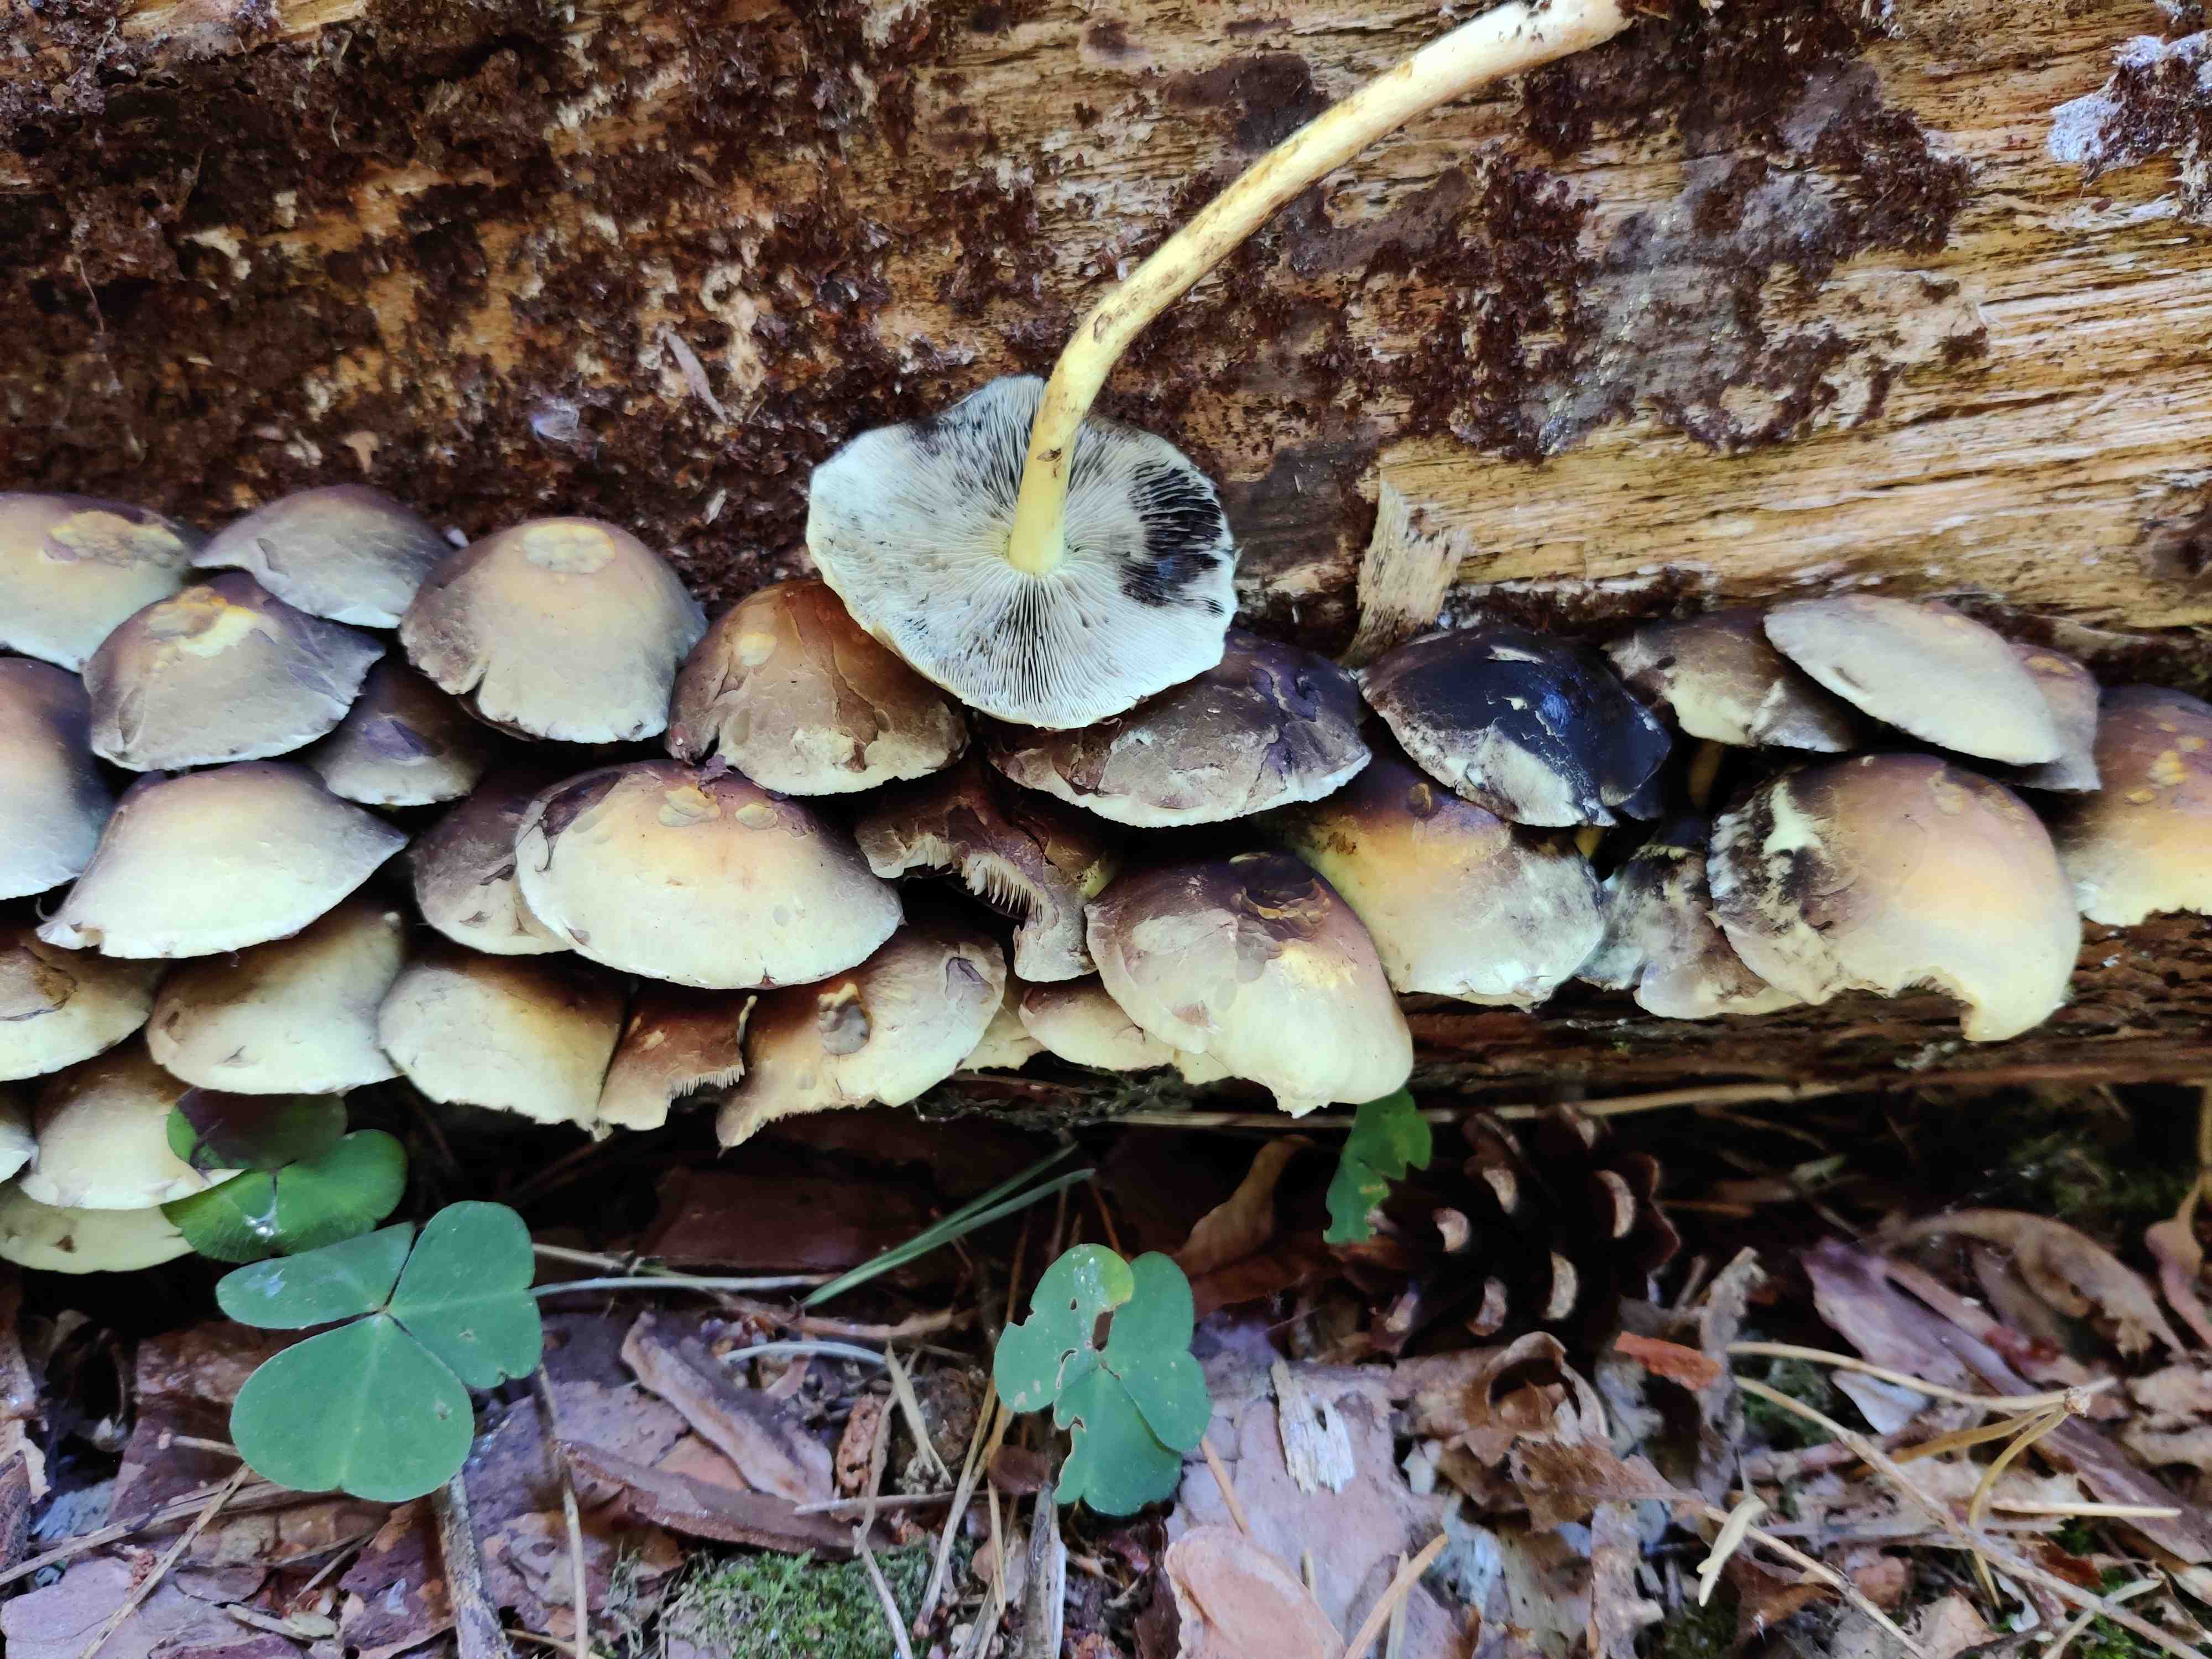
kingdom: Fungi
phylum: Basidiomycota
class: Agaricomycetes
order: Agaricales
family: Strophariaceae
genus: Hypholoma
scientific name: Hypholoma fasciculare
